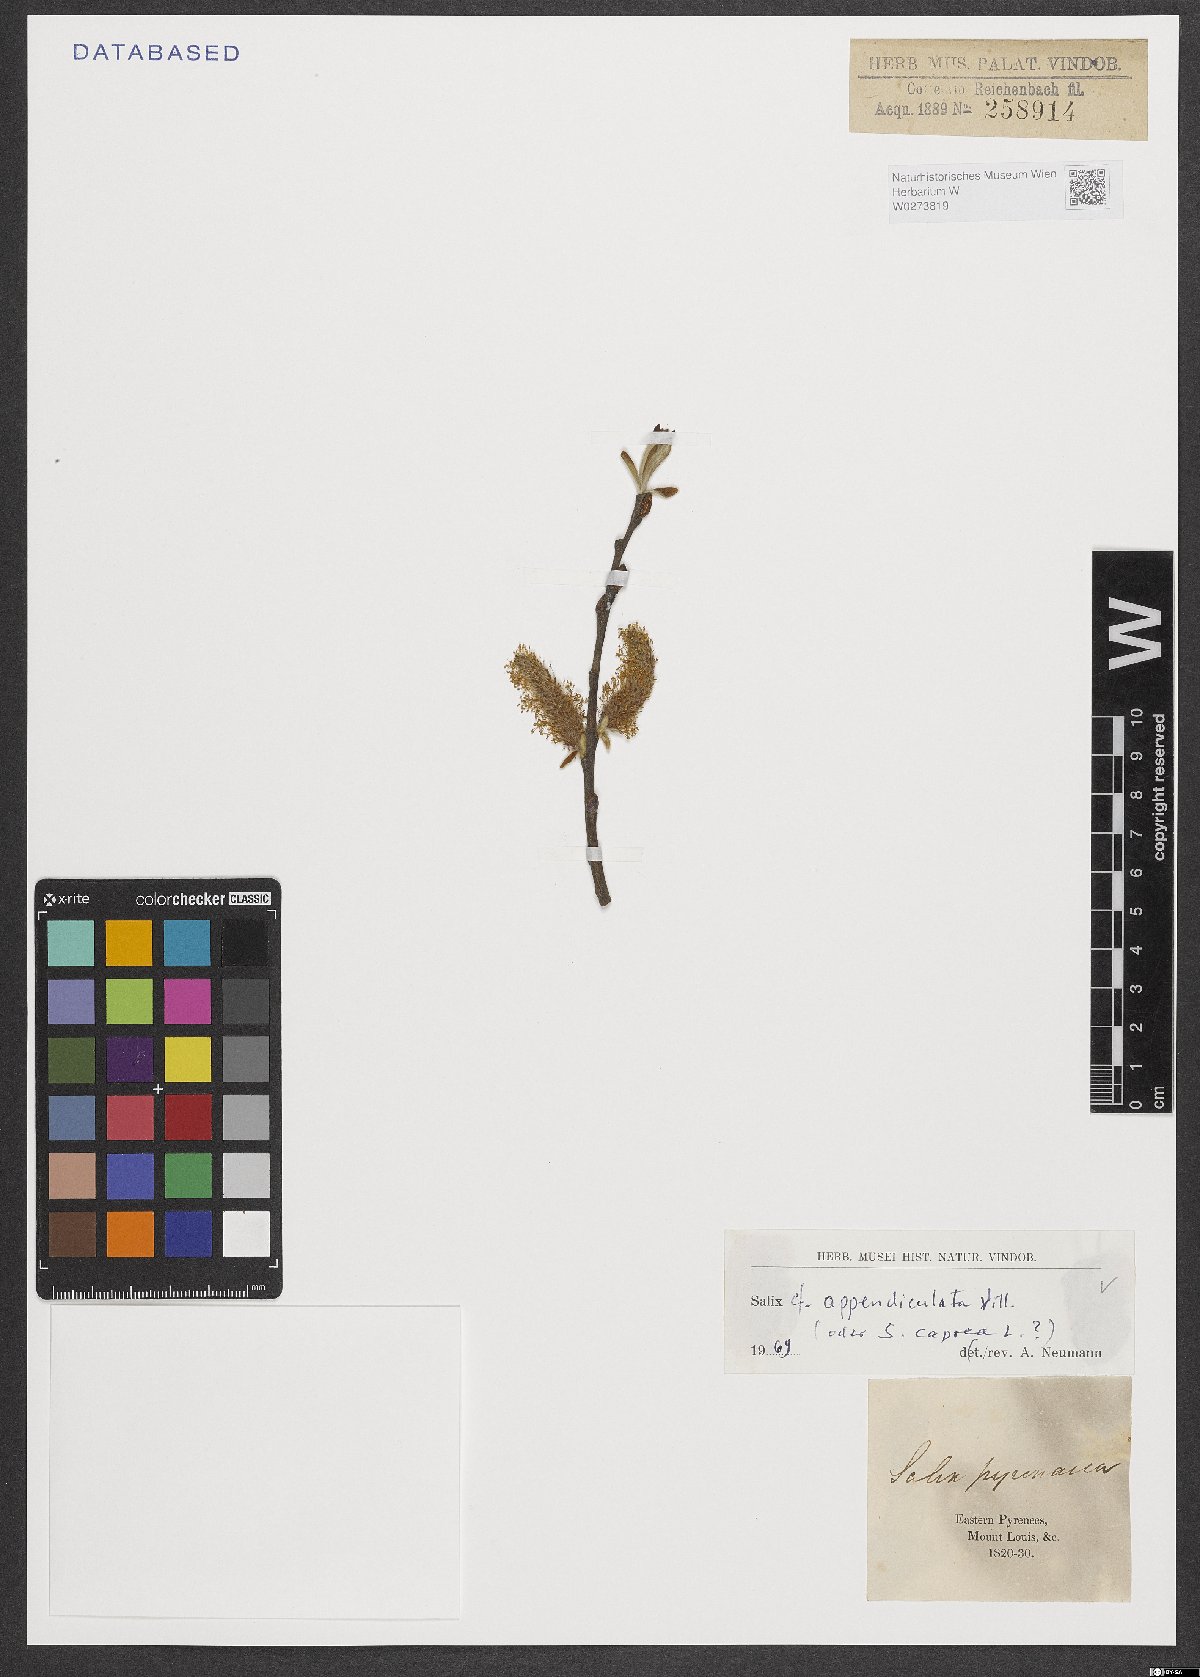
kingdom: Plantae
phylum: Tracheophyta
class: Magnoliopsida
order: Malpighiales
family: Salicaceae
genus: Salix
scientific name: Salix appendiculata
